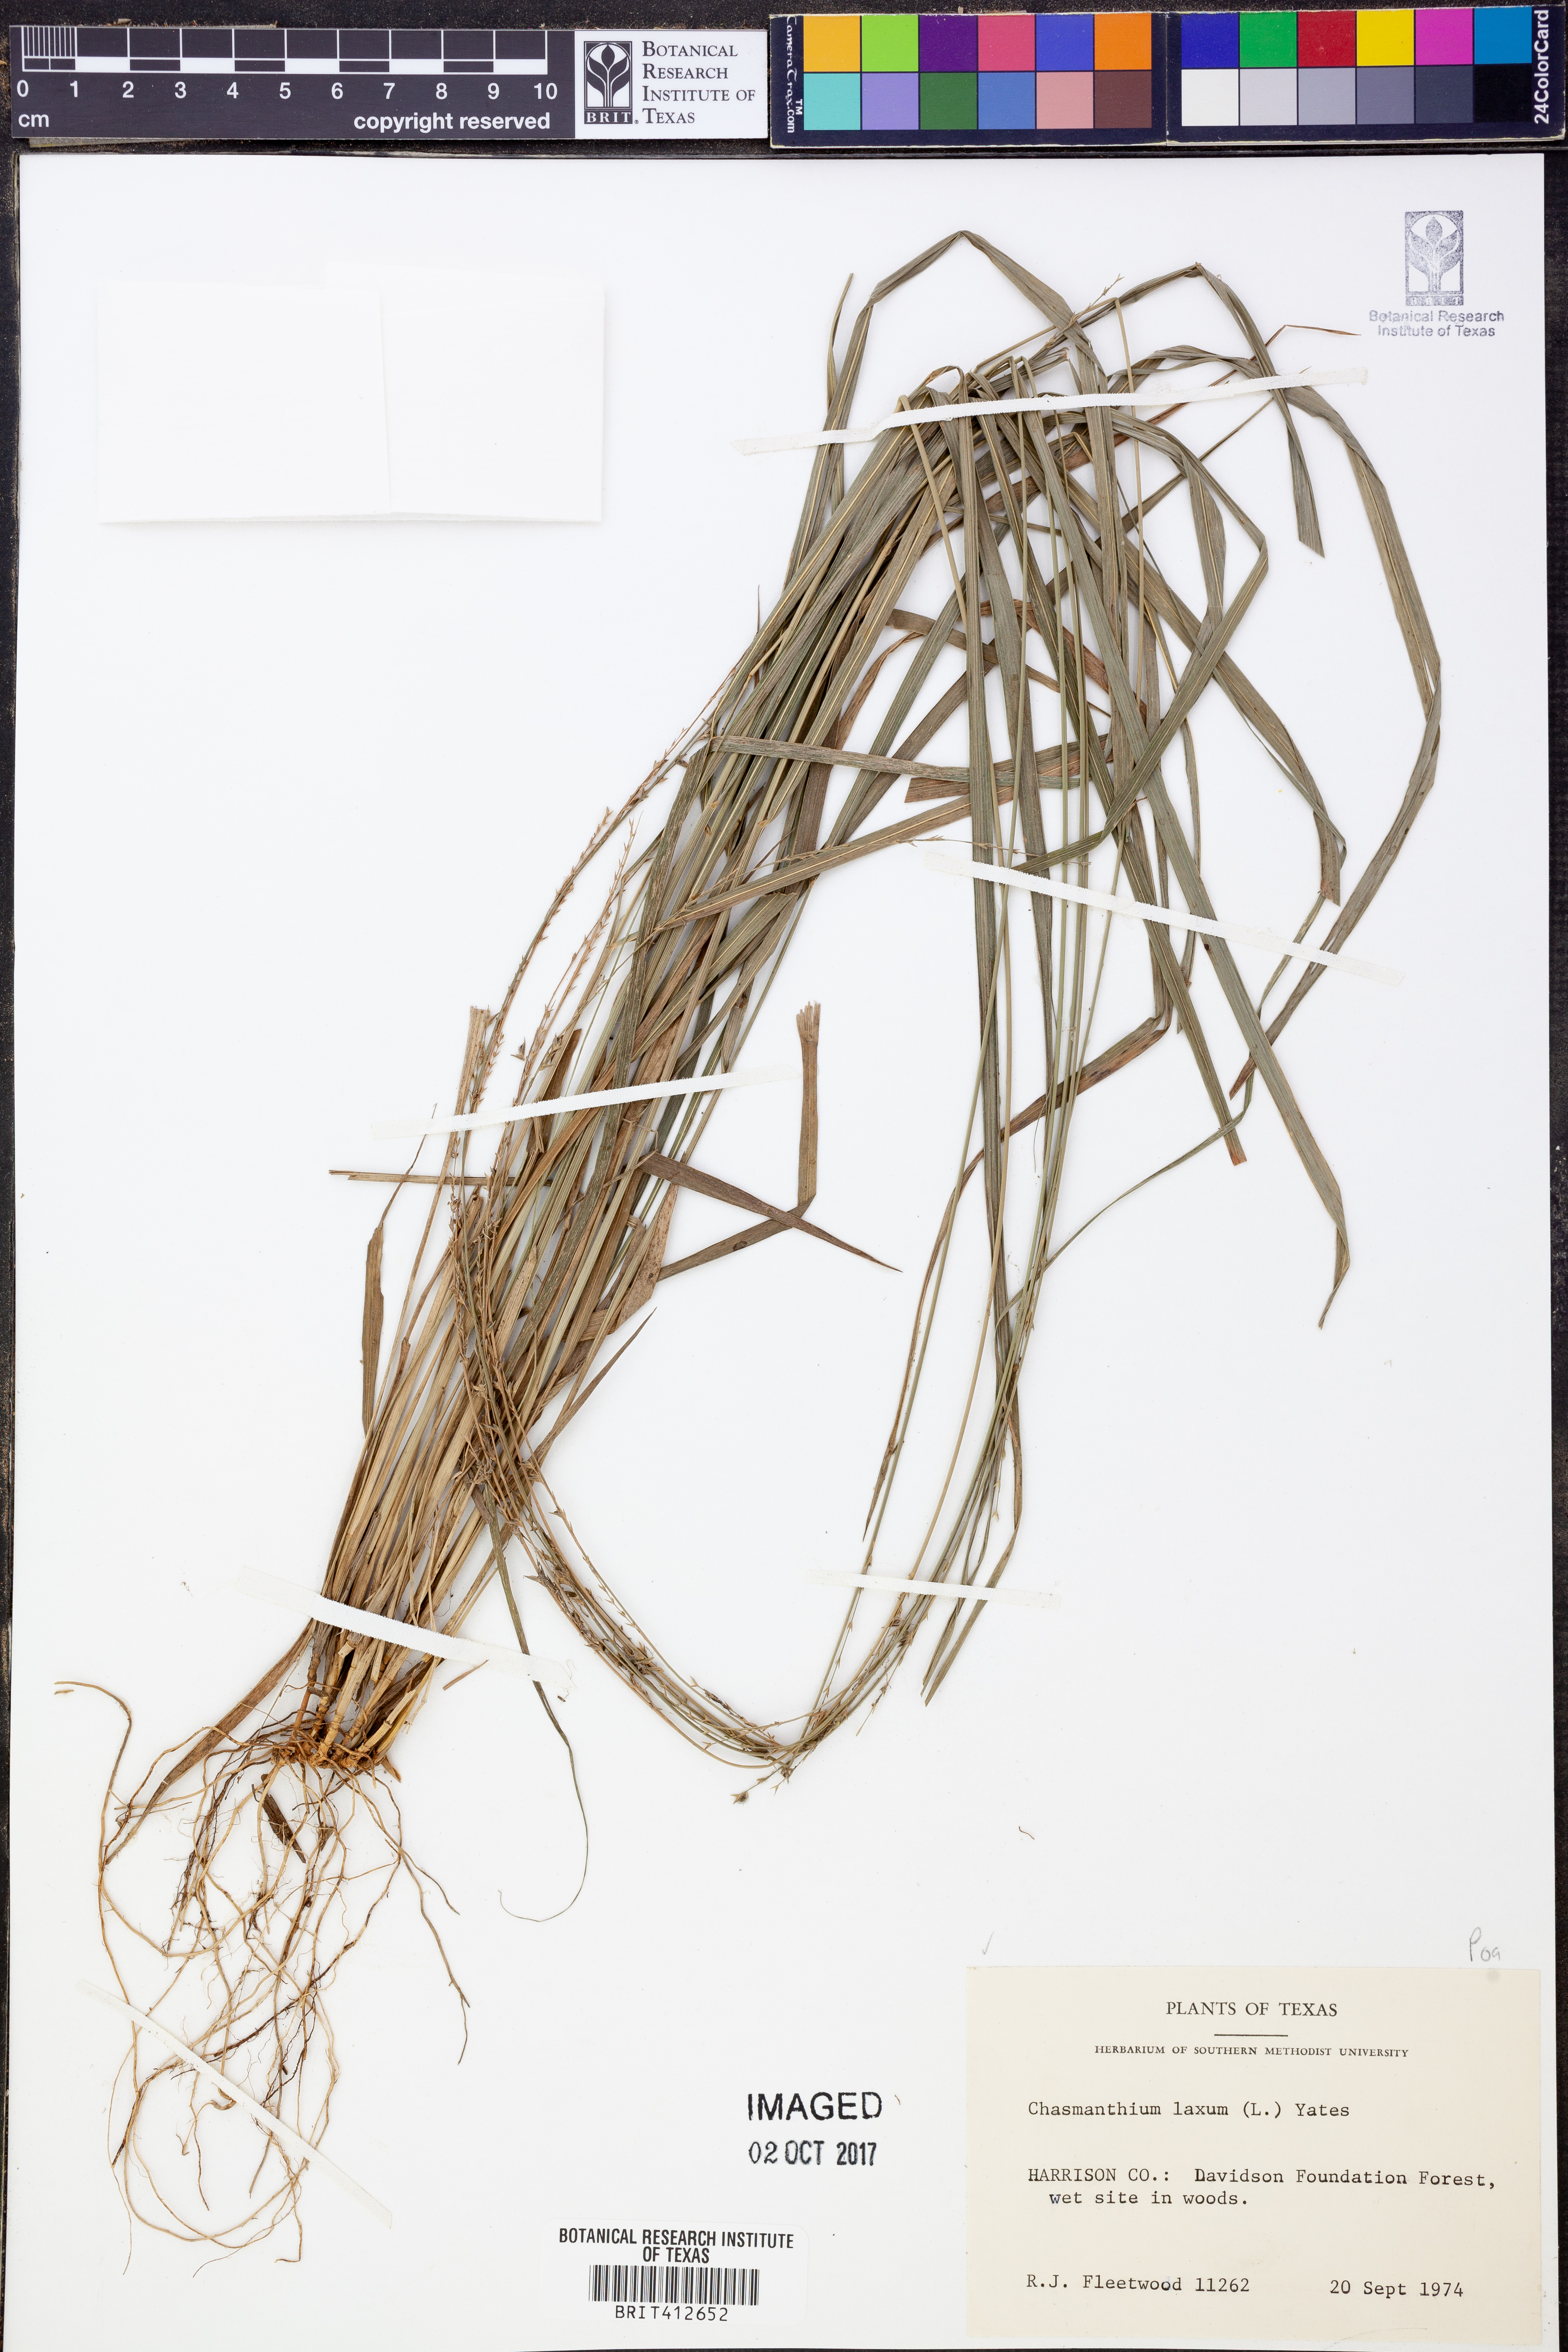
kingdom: Plantae
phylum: Tracheophyta
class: Liliopsida
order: Poales
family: Poaceae
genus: Chasmanthium
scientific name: Chasmanthium laxum
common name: Slender chasmanthium
